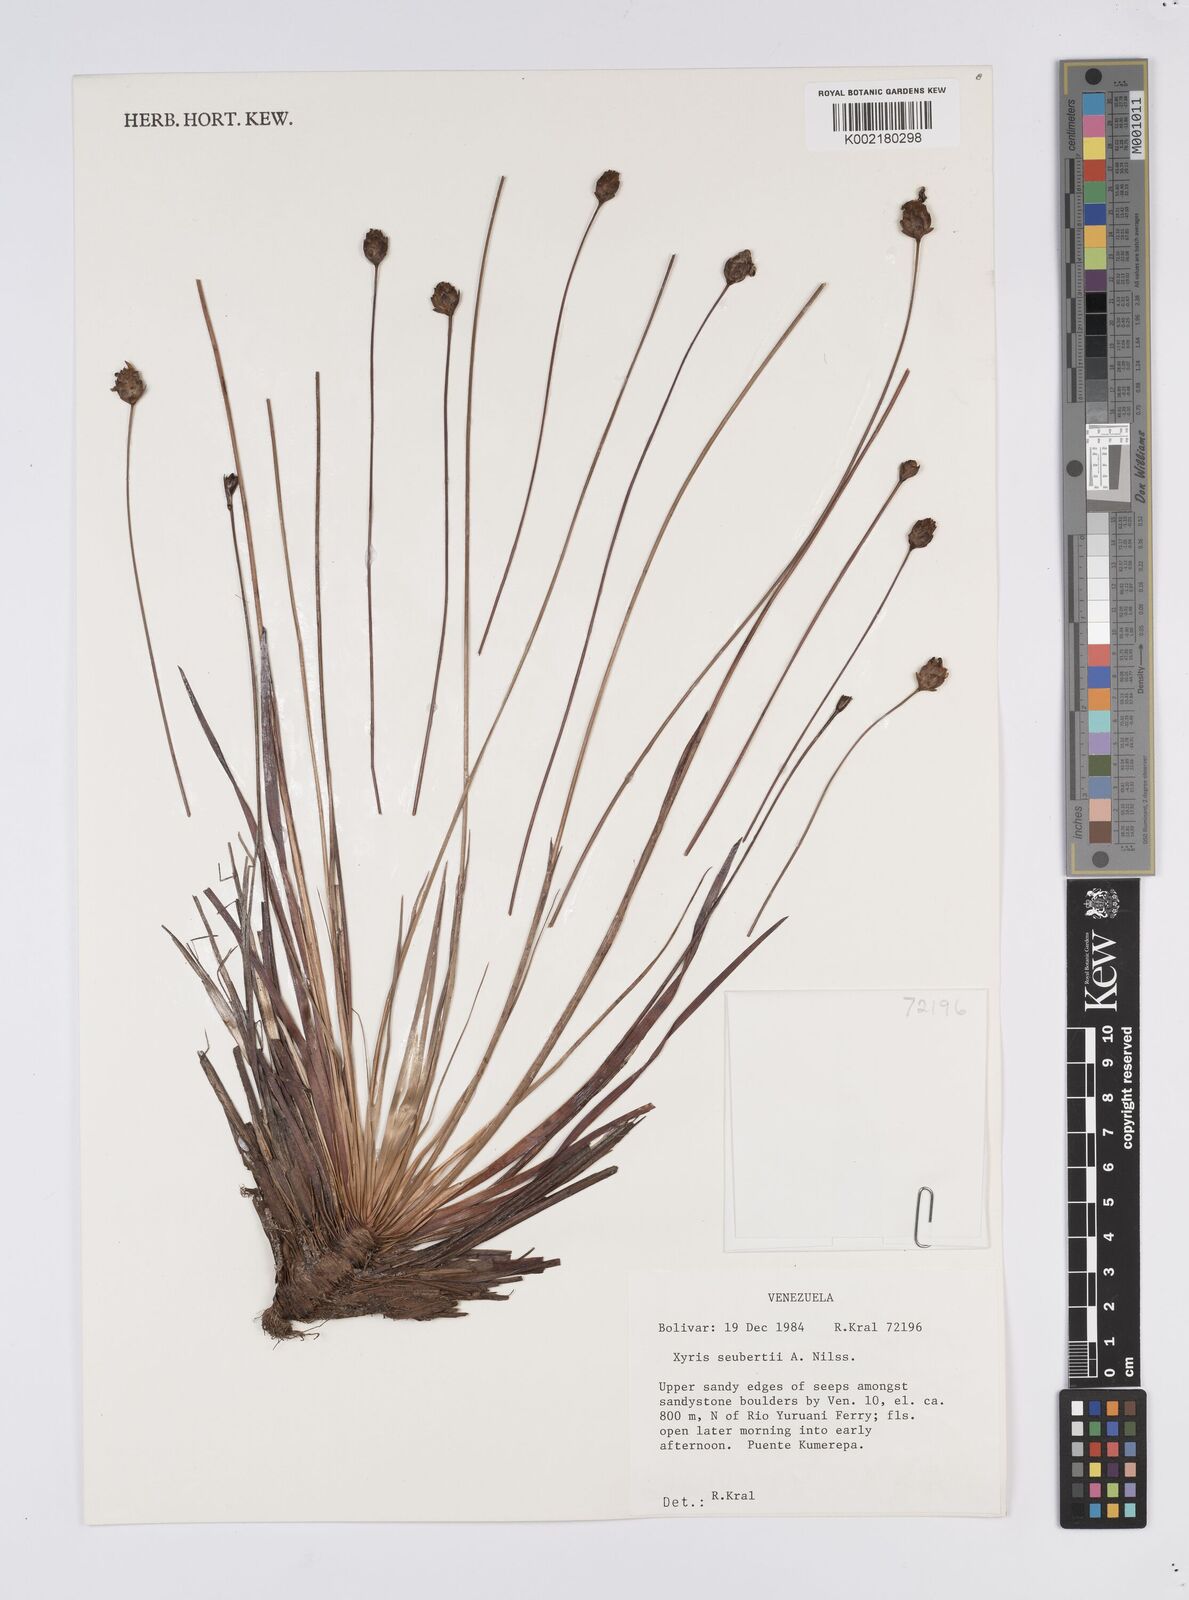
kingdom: Plantae
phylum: Tracheophyta
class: Liliopsida
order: Poales
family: Xyridaceae
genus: Xyris
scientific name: Xyris seubertii
